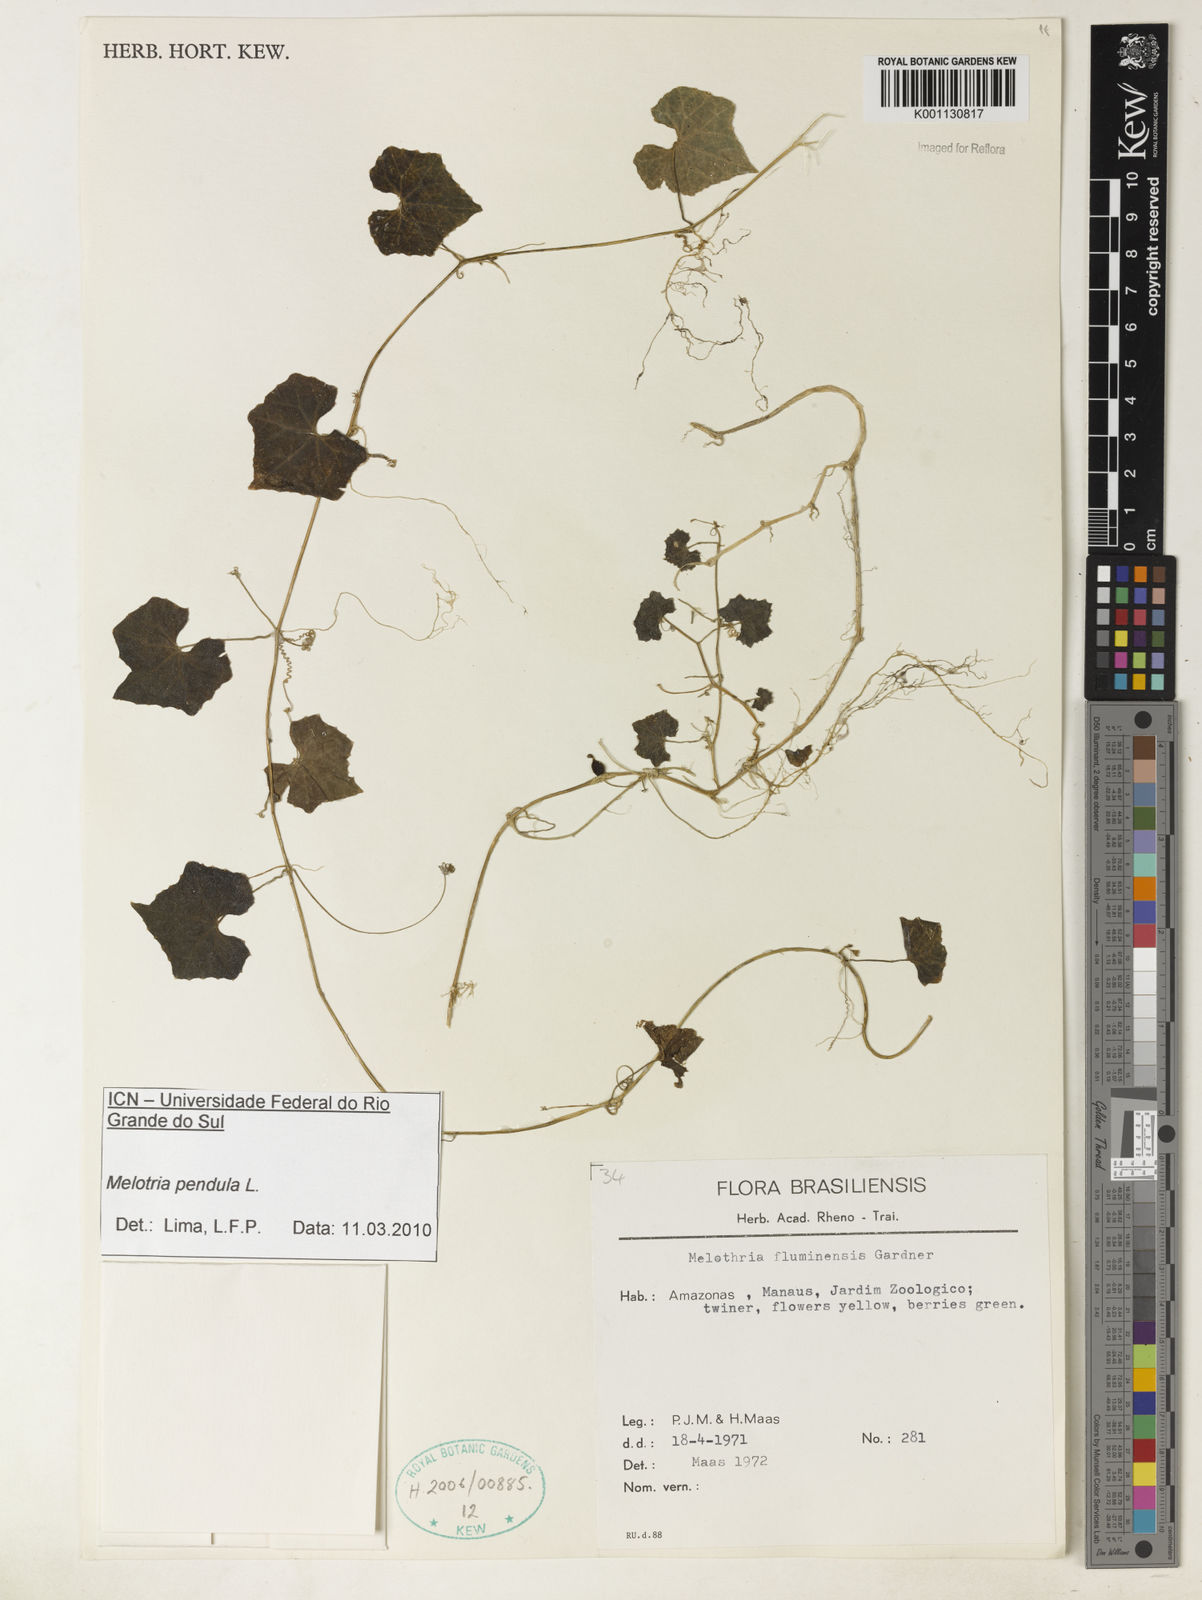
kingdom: Plantae
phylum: Tracheophyta
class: Magnoliopsida
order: Cucurbitales
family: Cucurbitaceae
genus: Melothria
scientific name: Melothria pendula
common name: Creeping-cucumber
